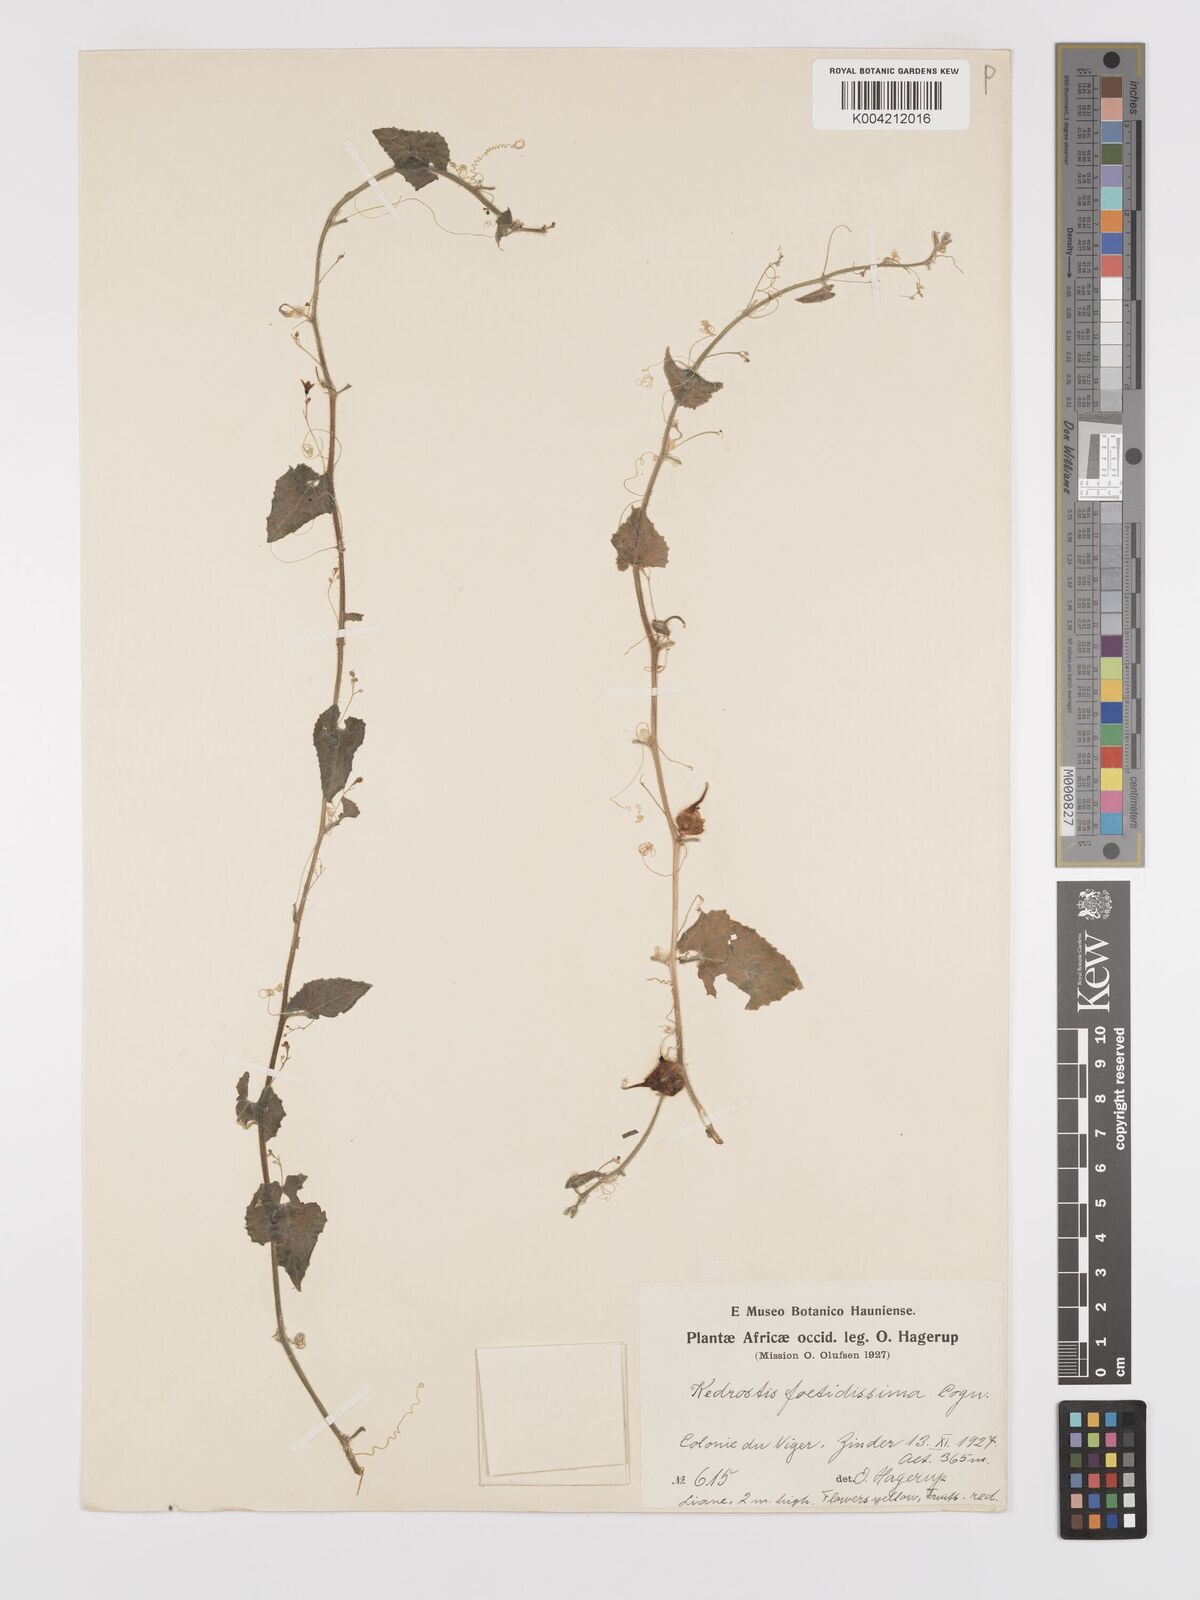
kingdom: Plantae
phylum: Tracheophyta
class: Magnoliopsida
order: Cucurbitales
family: Cucurbitaceae
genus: Kedrostis
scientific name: Kedrostis foetidissima
